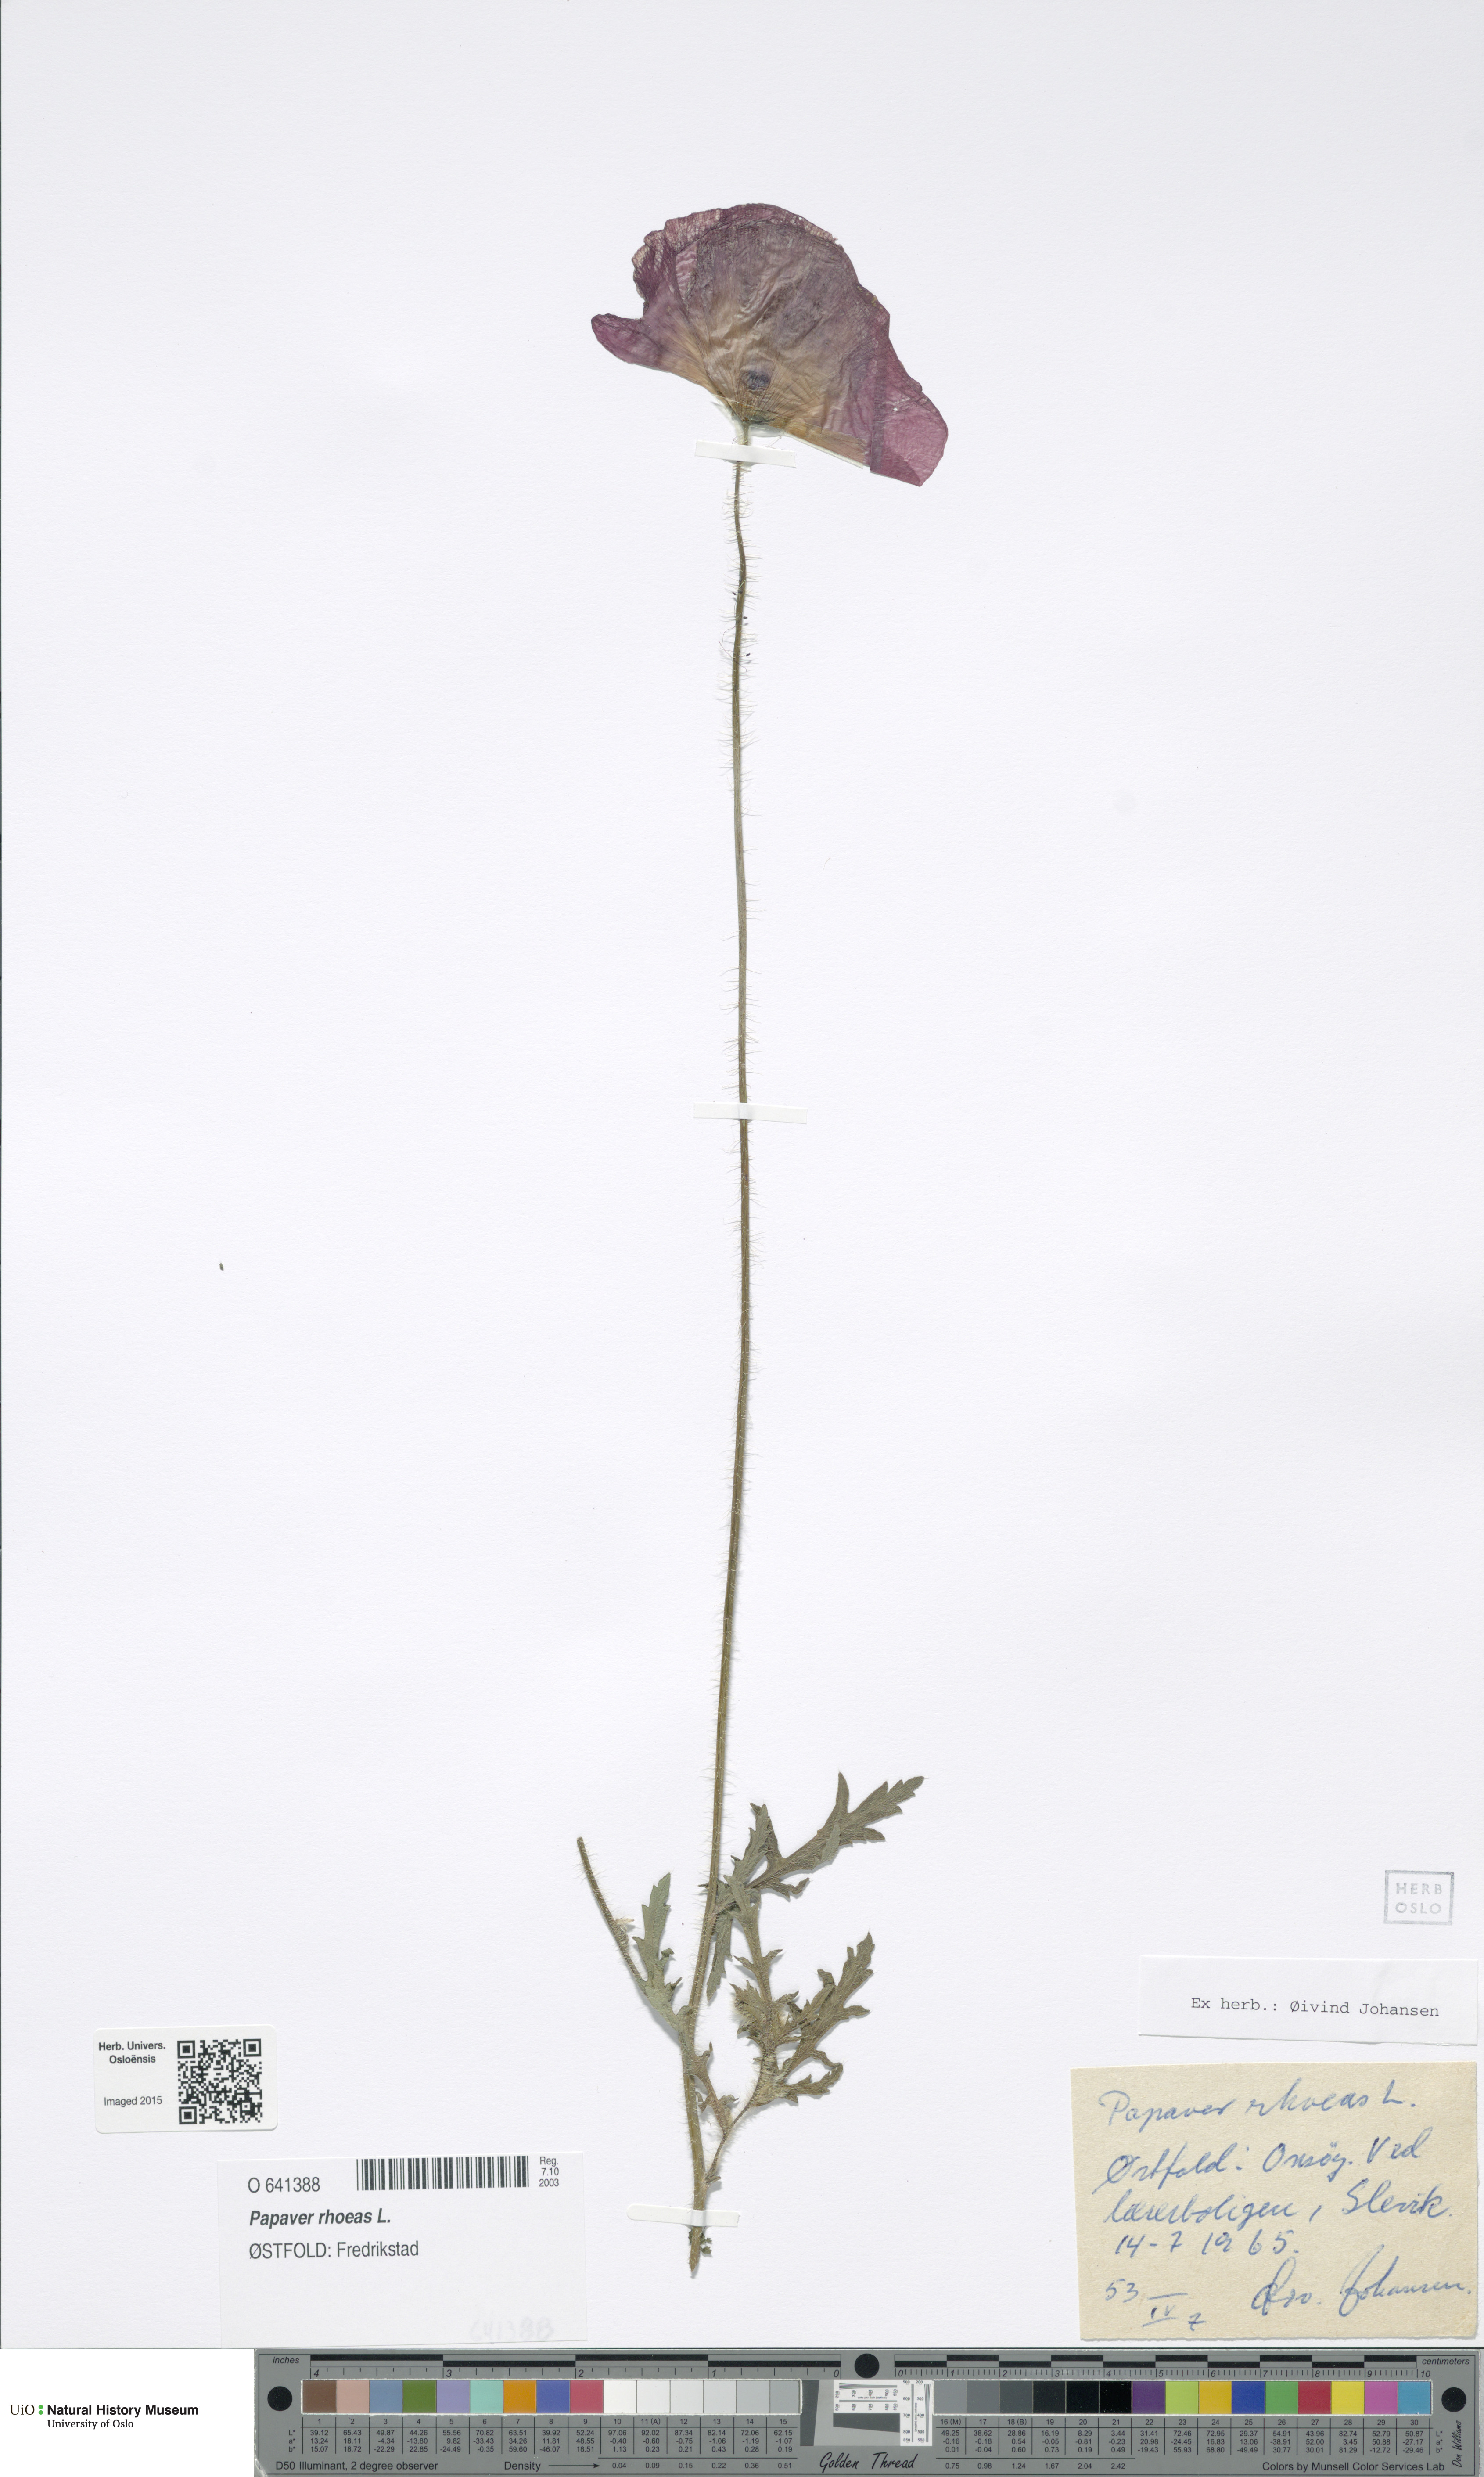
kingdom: Plantae
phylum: Tracheophyta
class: Magnoliopsida
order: Ranunculales
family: Papaveraceae
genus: Papaver
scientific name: Papaver rhoeas
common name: Corn poppy
